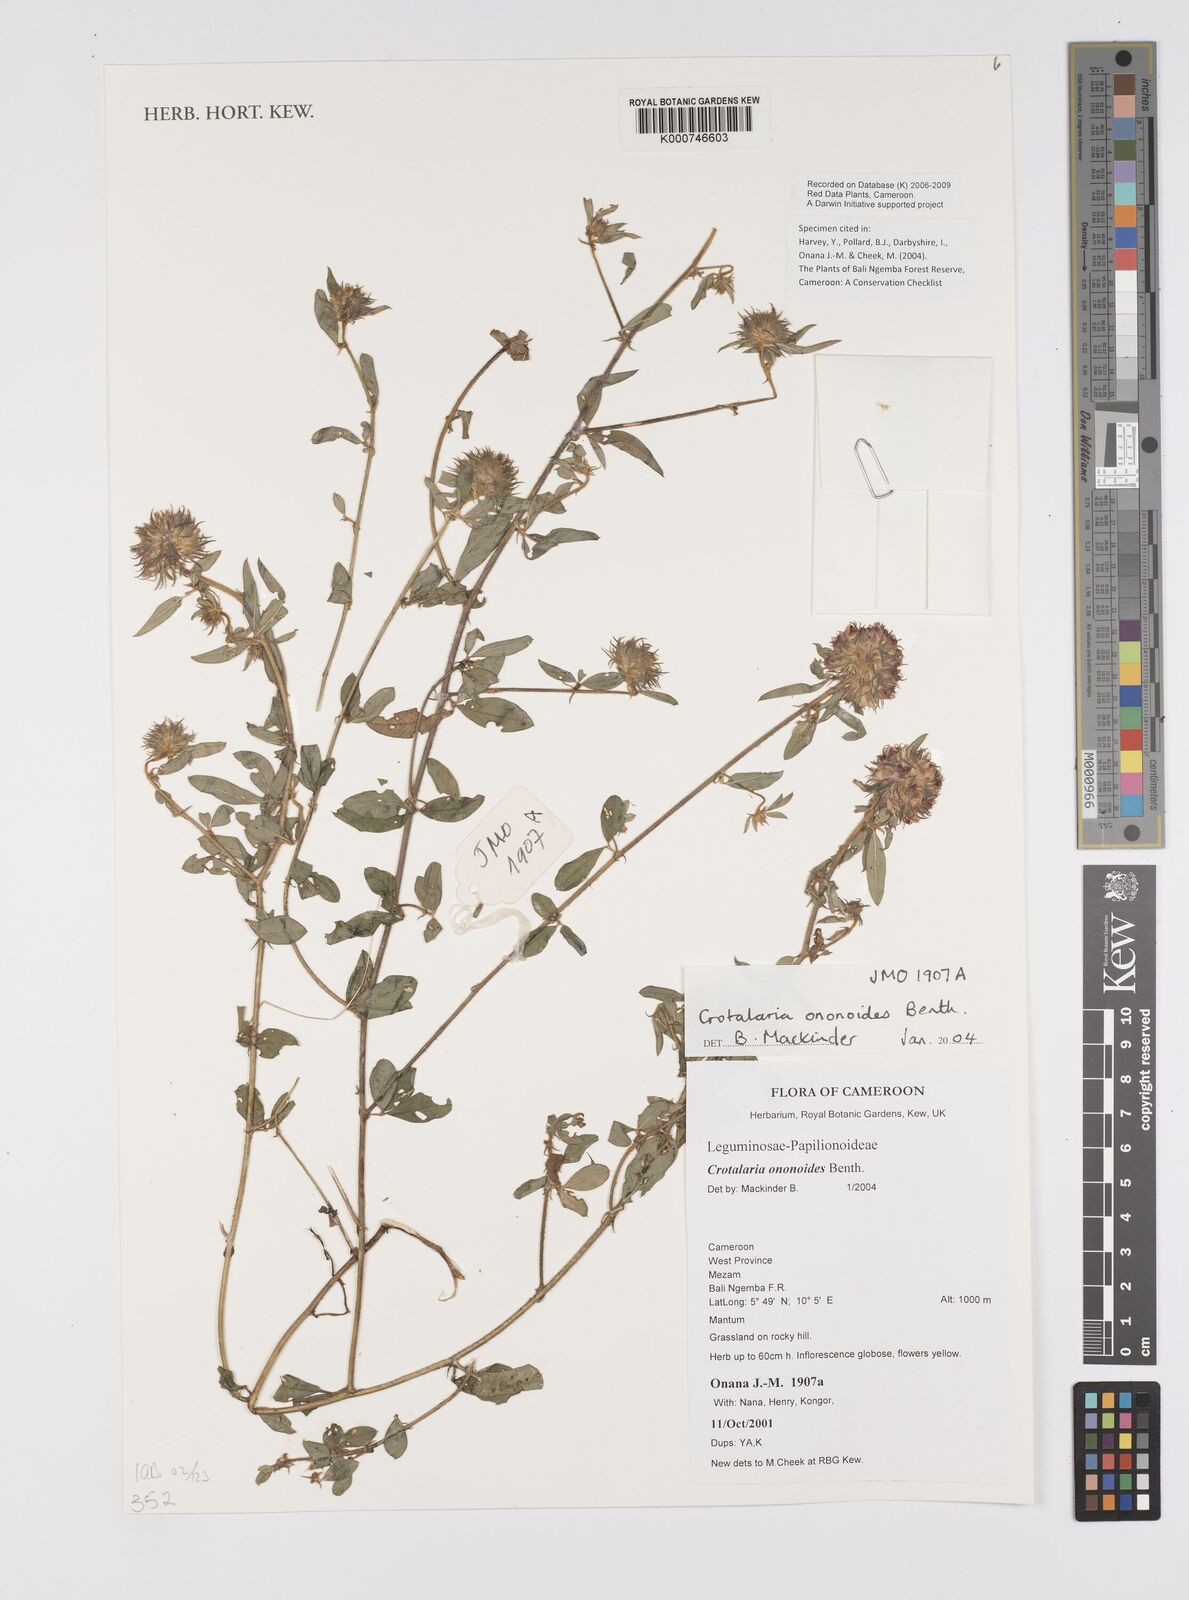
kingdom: Plantae
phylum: Tracheophyta
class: Magnoliopsida
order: Fabales
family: Fabaceae
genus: Crotalaria
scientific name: Crotalaria ononoides
